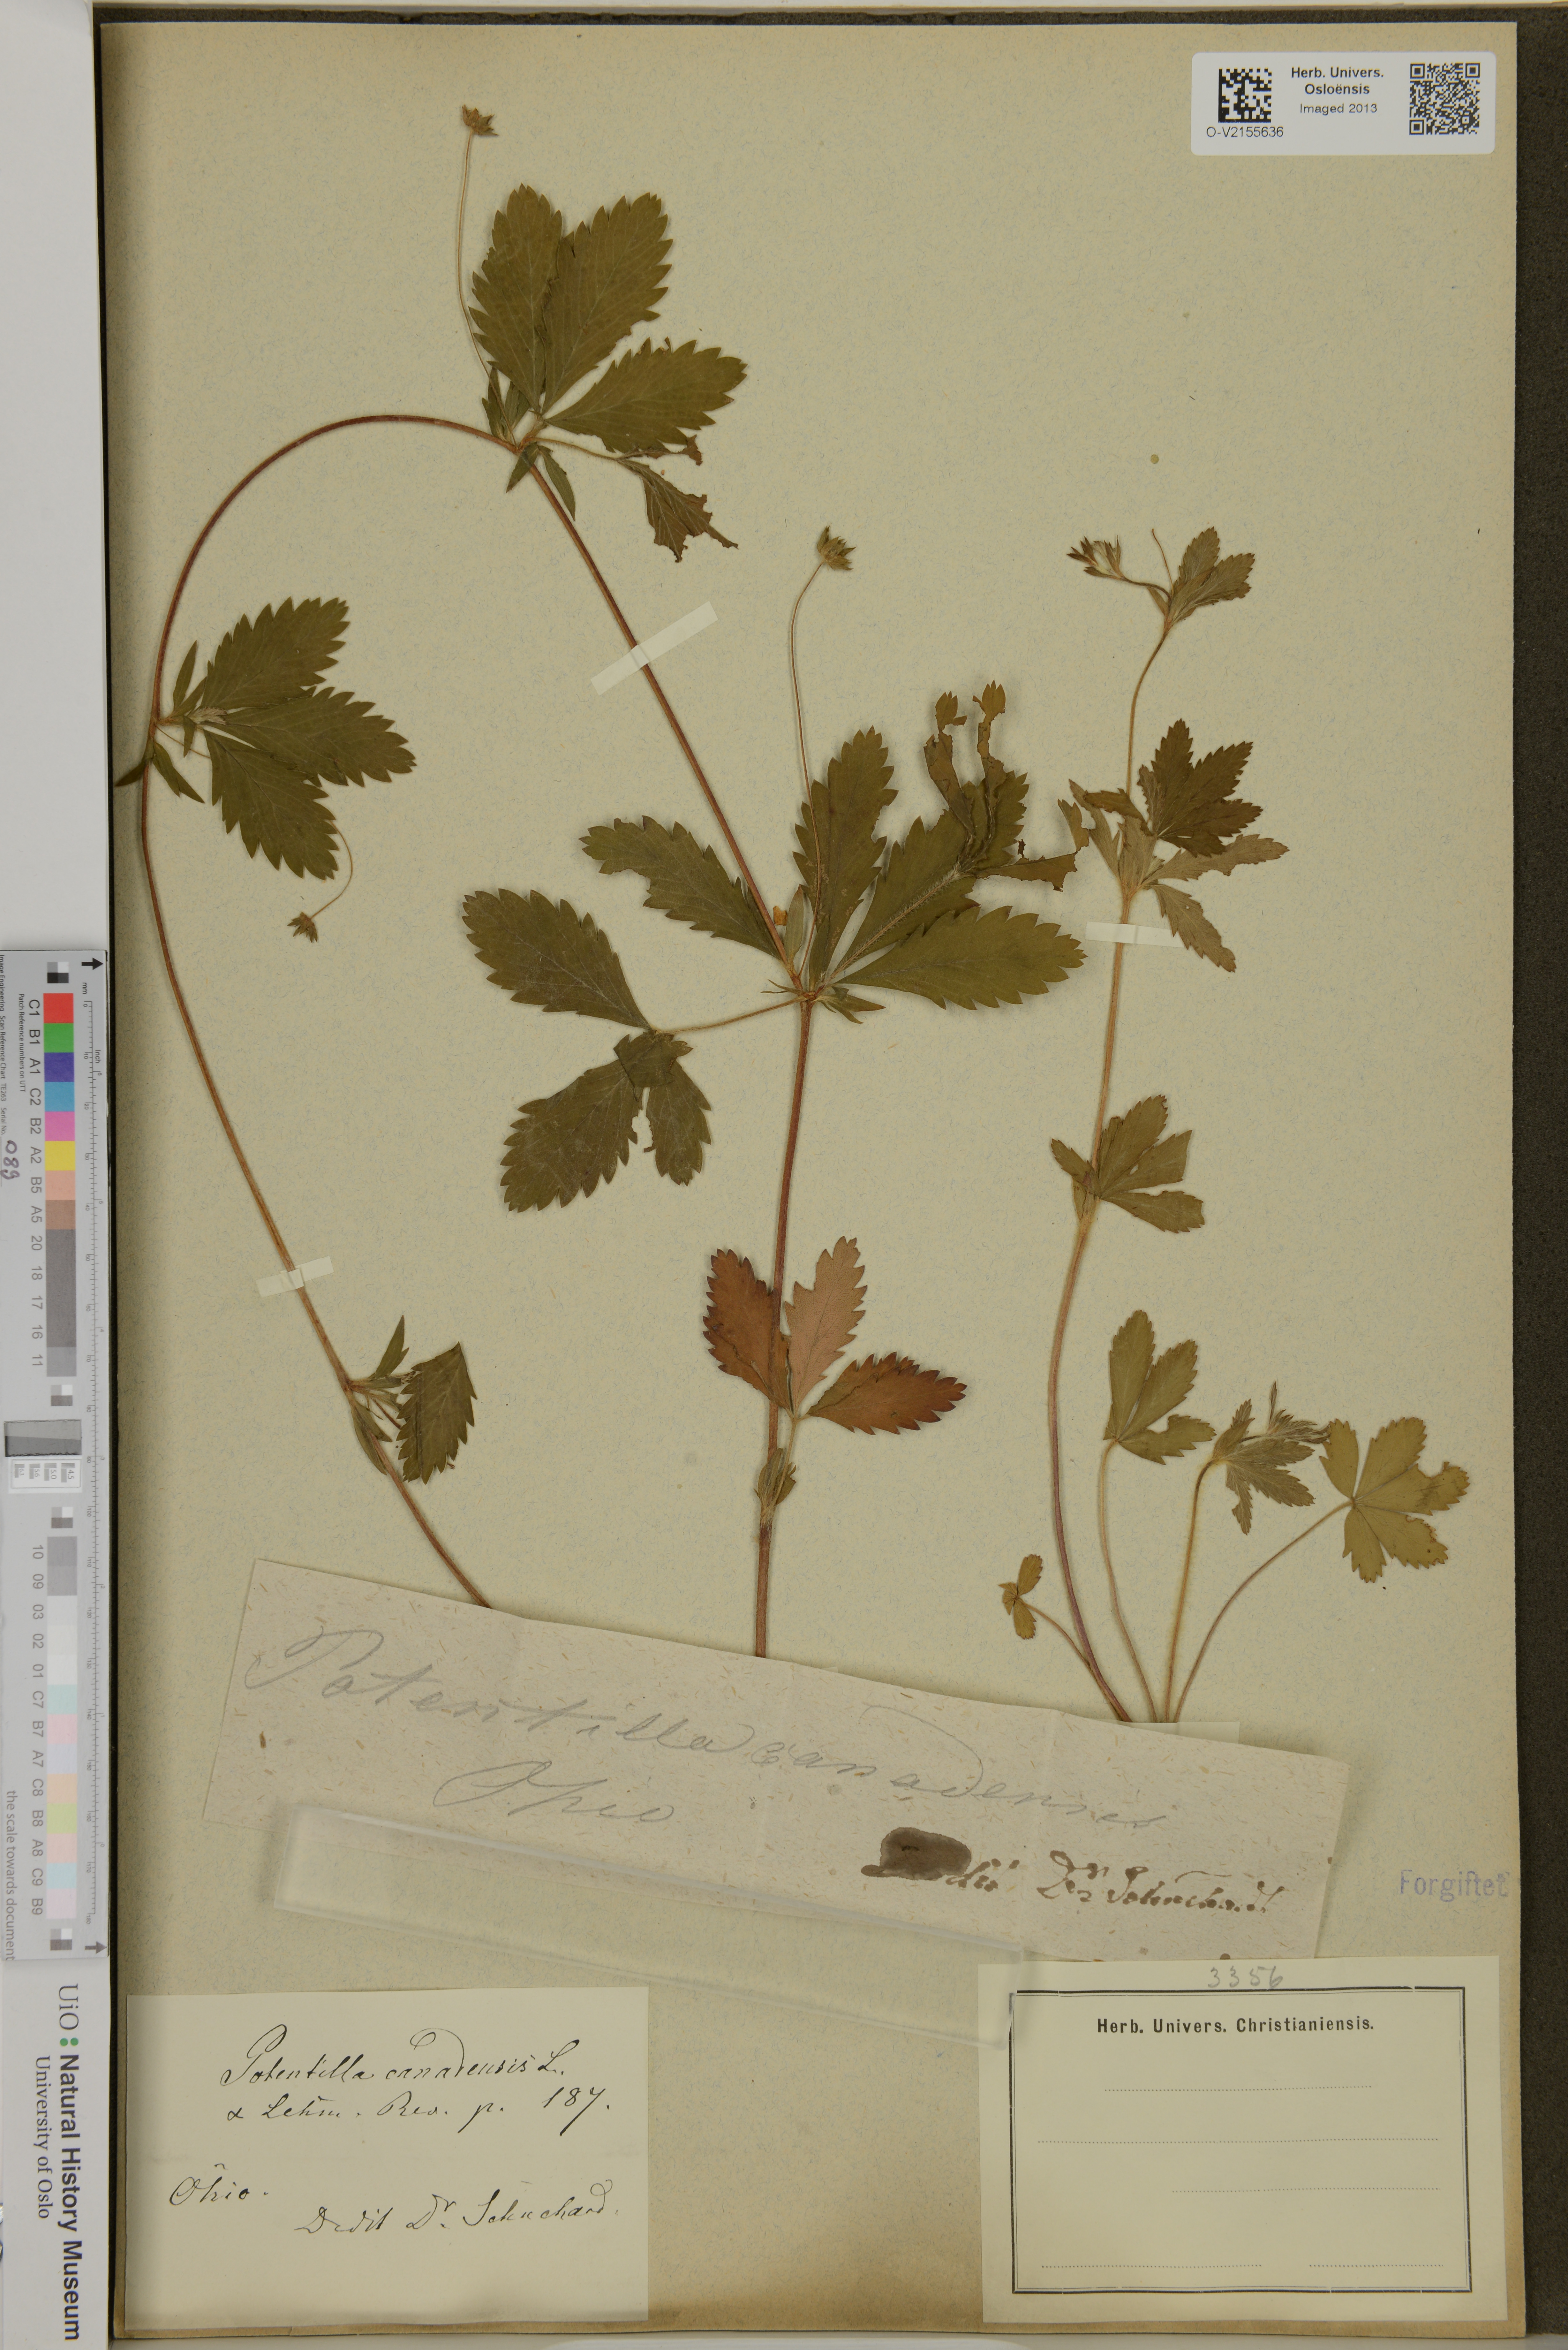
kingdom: Plantae
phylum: Tracheophyta
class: Magnoliopsida
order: Rosales
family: Rosaceae
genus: Potentilla
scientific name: Potentilla canadensis
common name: Canada cinquefoil
